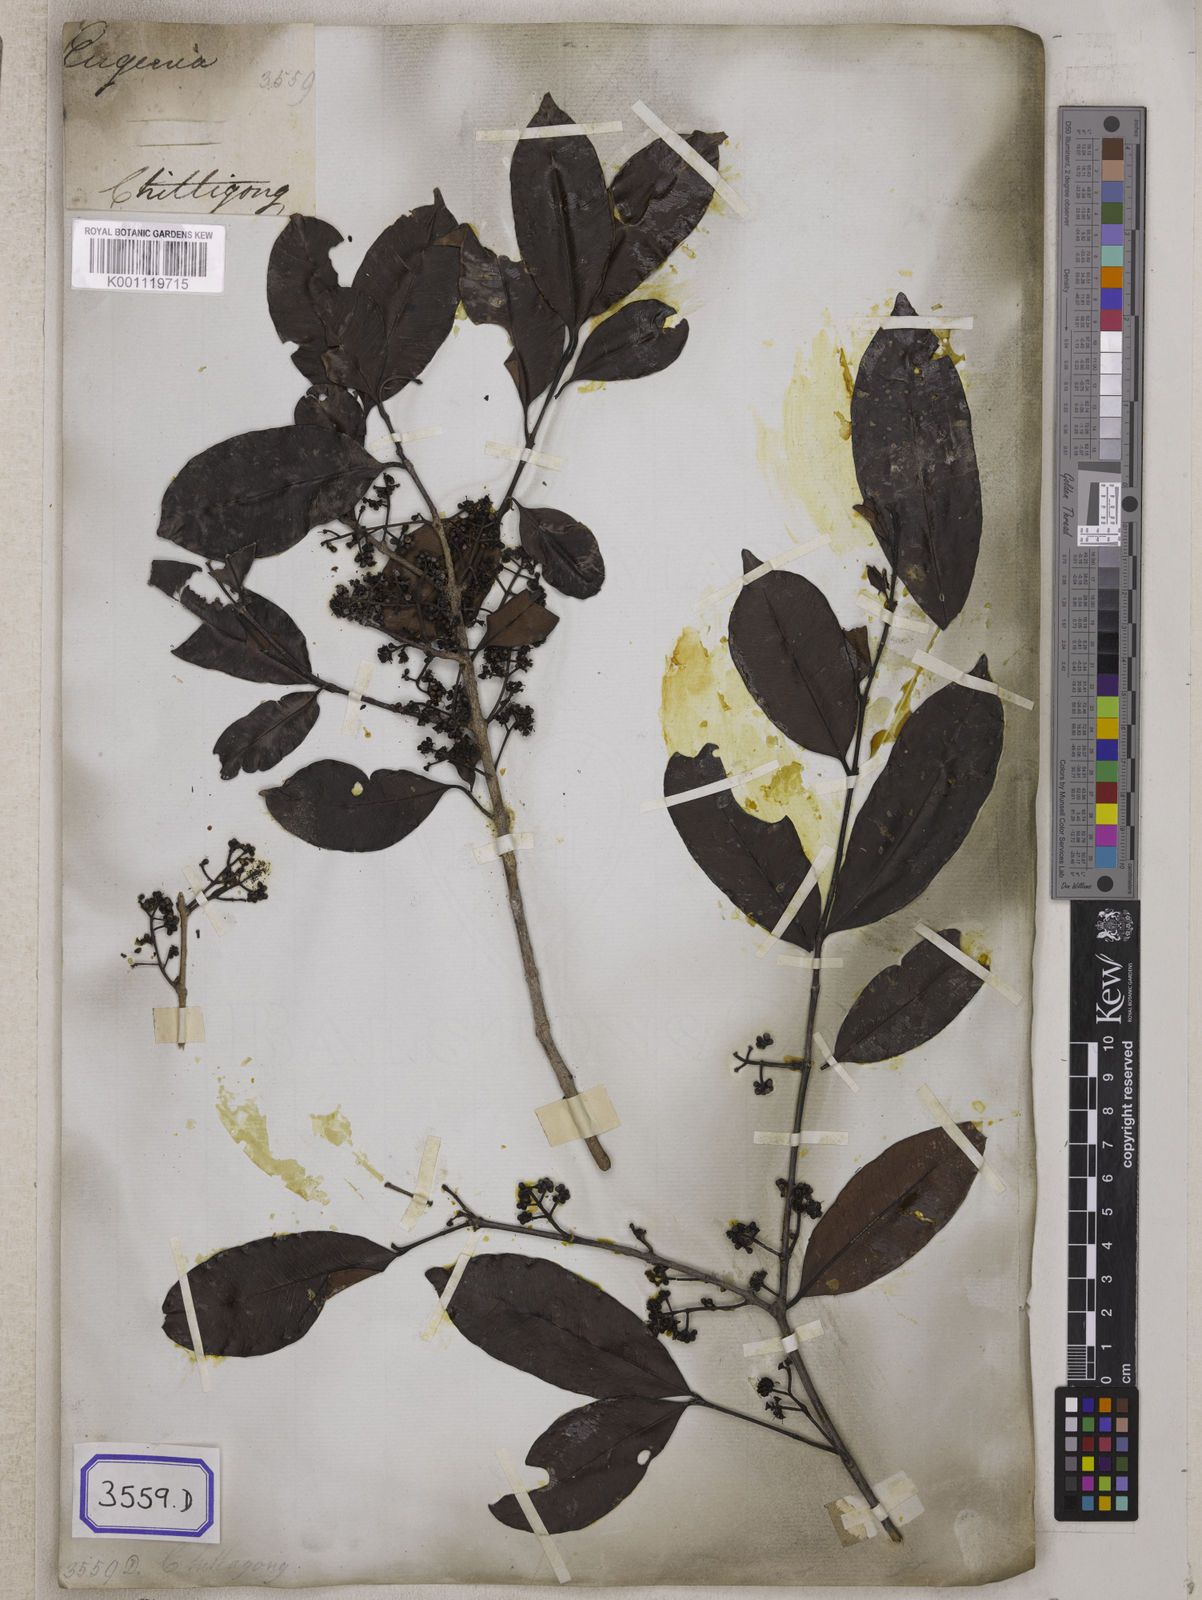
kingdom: Plantae
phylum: Tracheophyta
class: Magnoliopsida
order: Myrtales
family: Myrtaceae
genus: Syzygium
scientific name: Syzygium fruticosum
